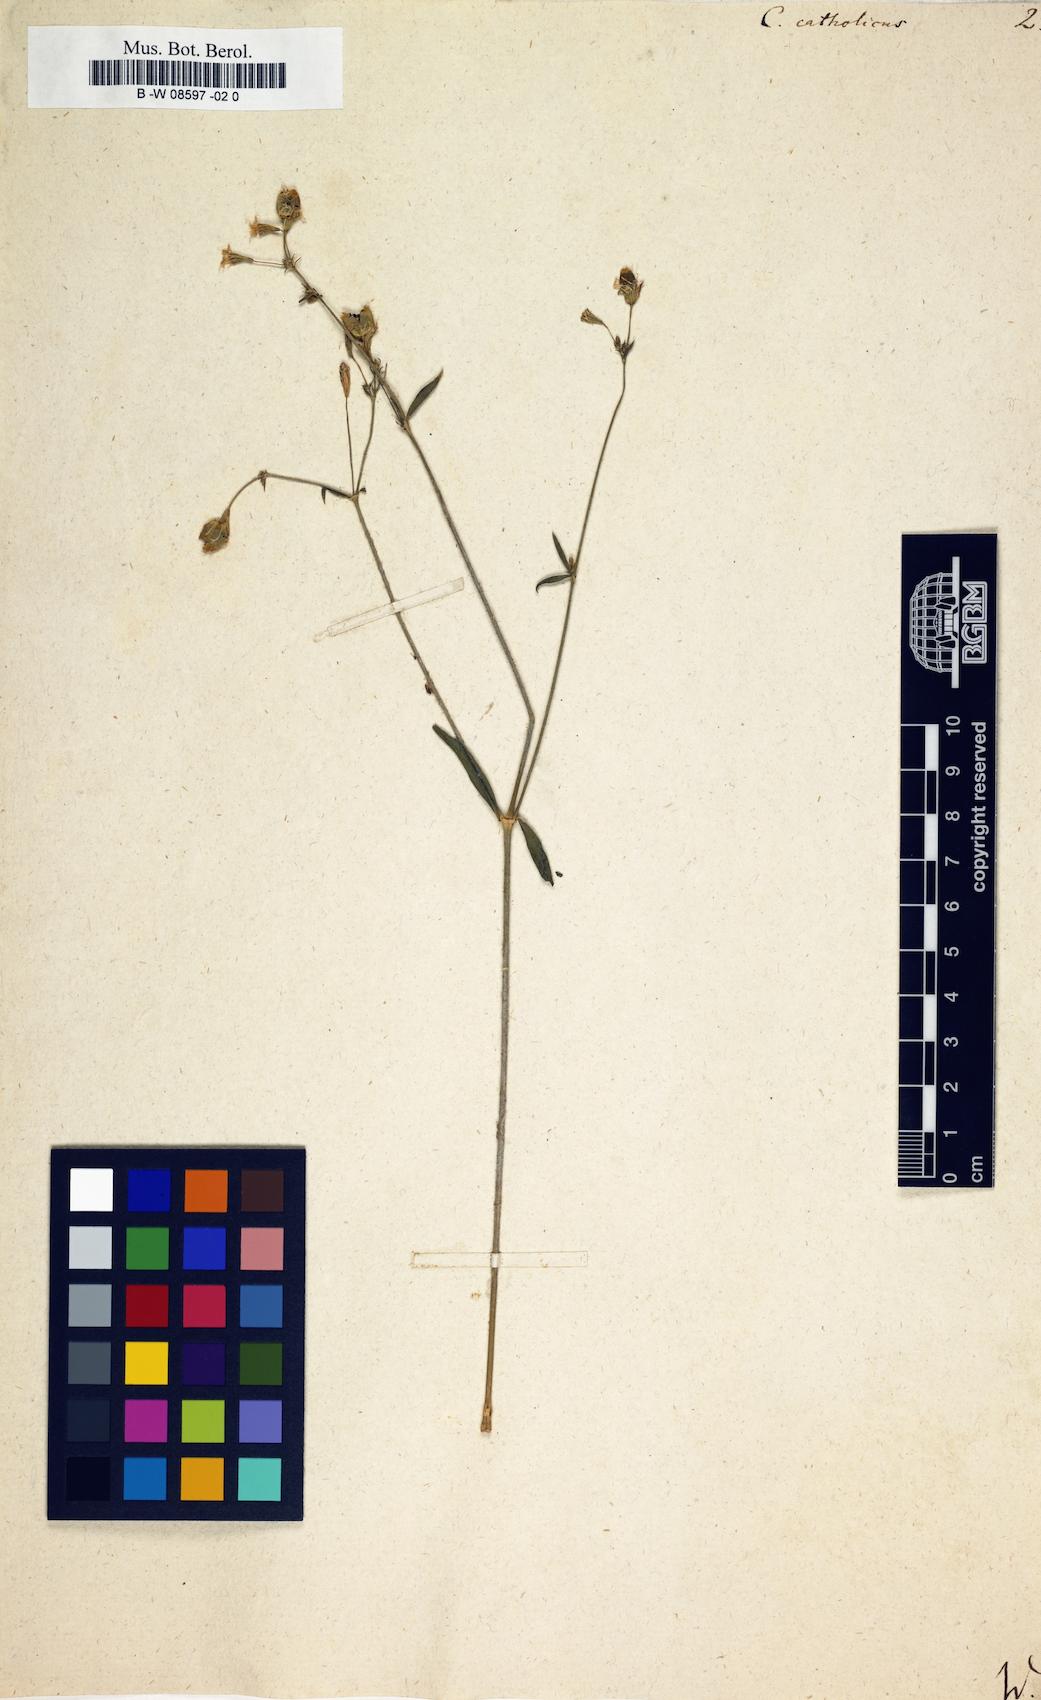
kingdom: Plantae
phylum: Tracheophyta
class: Magnoliopsida
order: Caryophyllales
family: Caryophyllaceae
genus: Silene
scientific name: Silene
